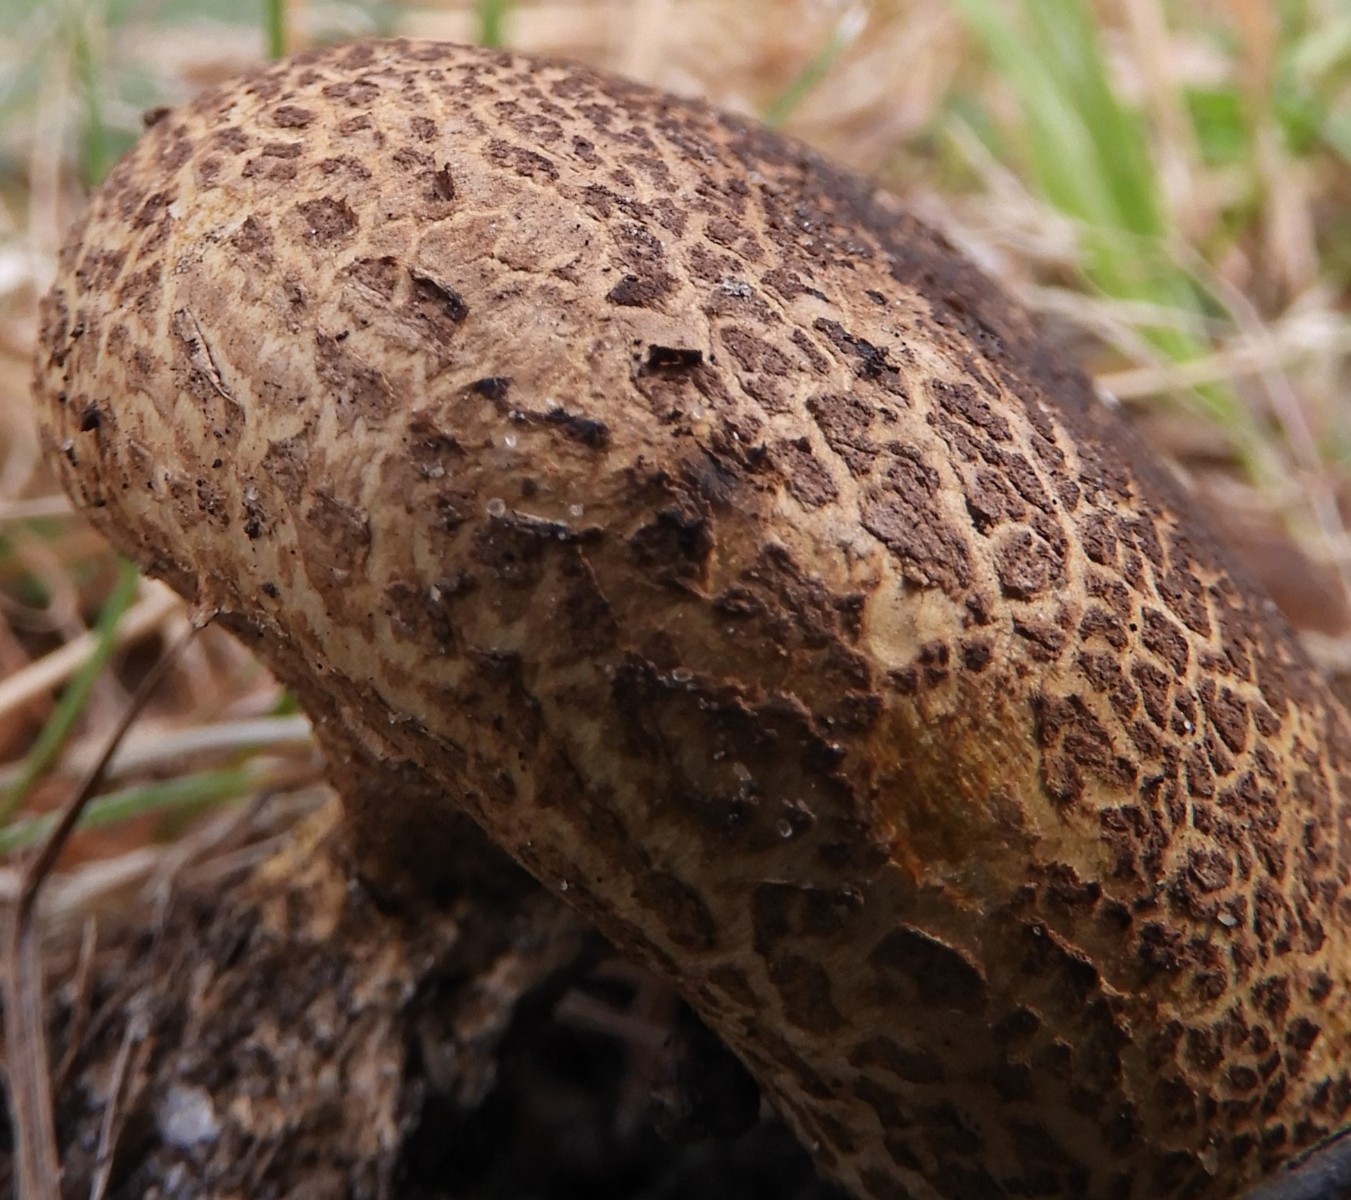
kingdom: Fungi
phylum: Basidiomycota
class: Agaricomycetes
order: Boletales
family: Sclerodermataceae
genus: Scleroderma
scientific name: Scleroderma verrucosum
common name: stilket bruskbold
